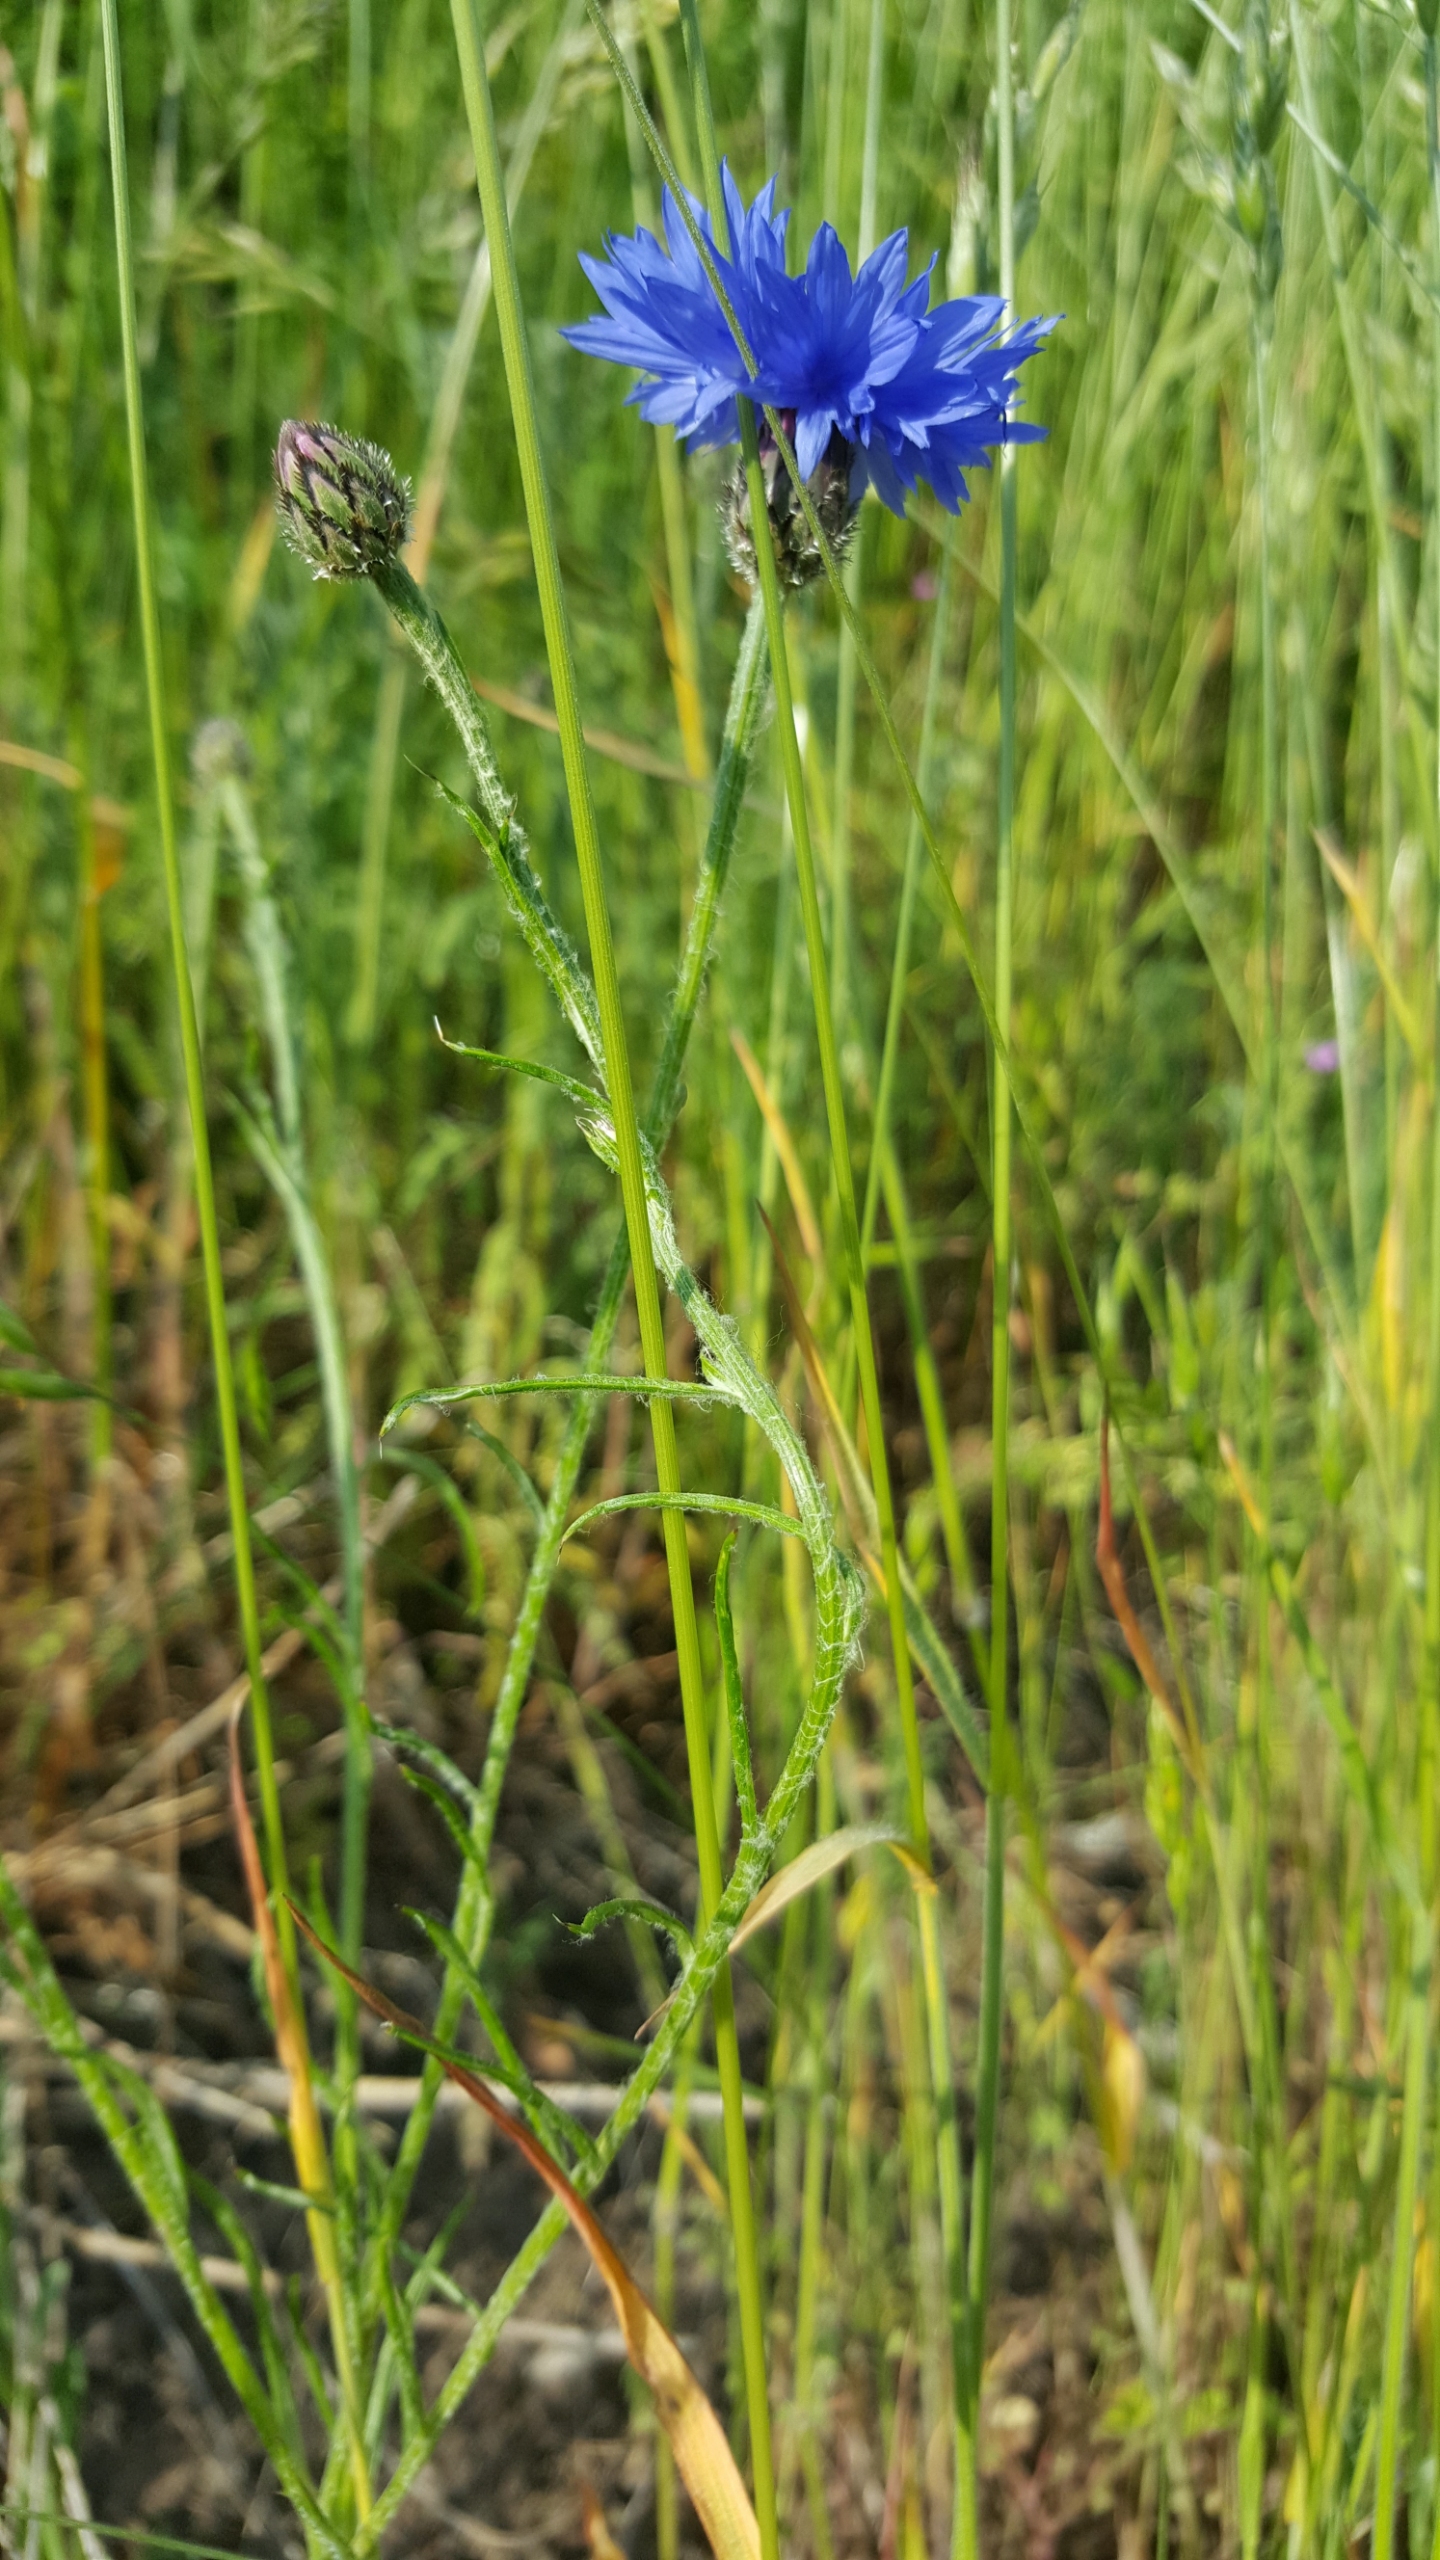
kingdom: Plantae
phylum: Tracheophyta
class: Magnoliopsida
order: Asterales
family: Asteraceae
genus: Centaurea
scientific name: Centaurea cyanus
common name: Kornblomst
